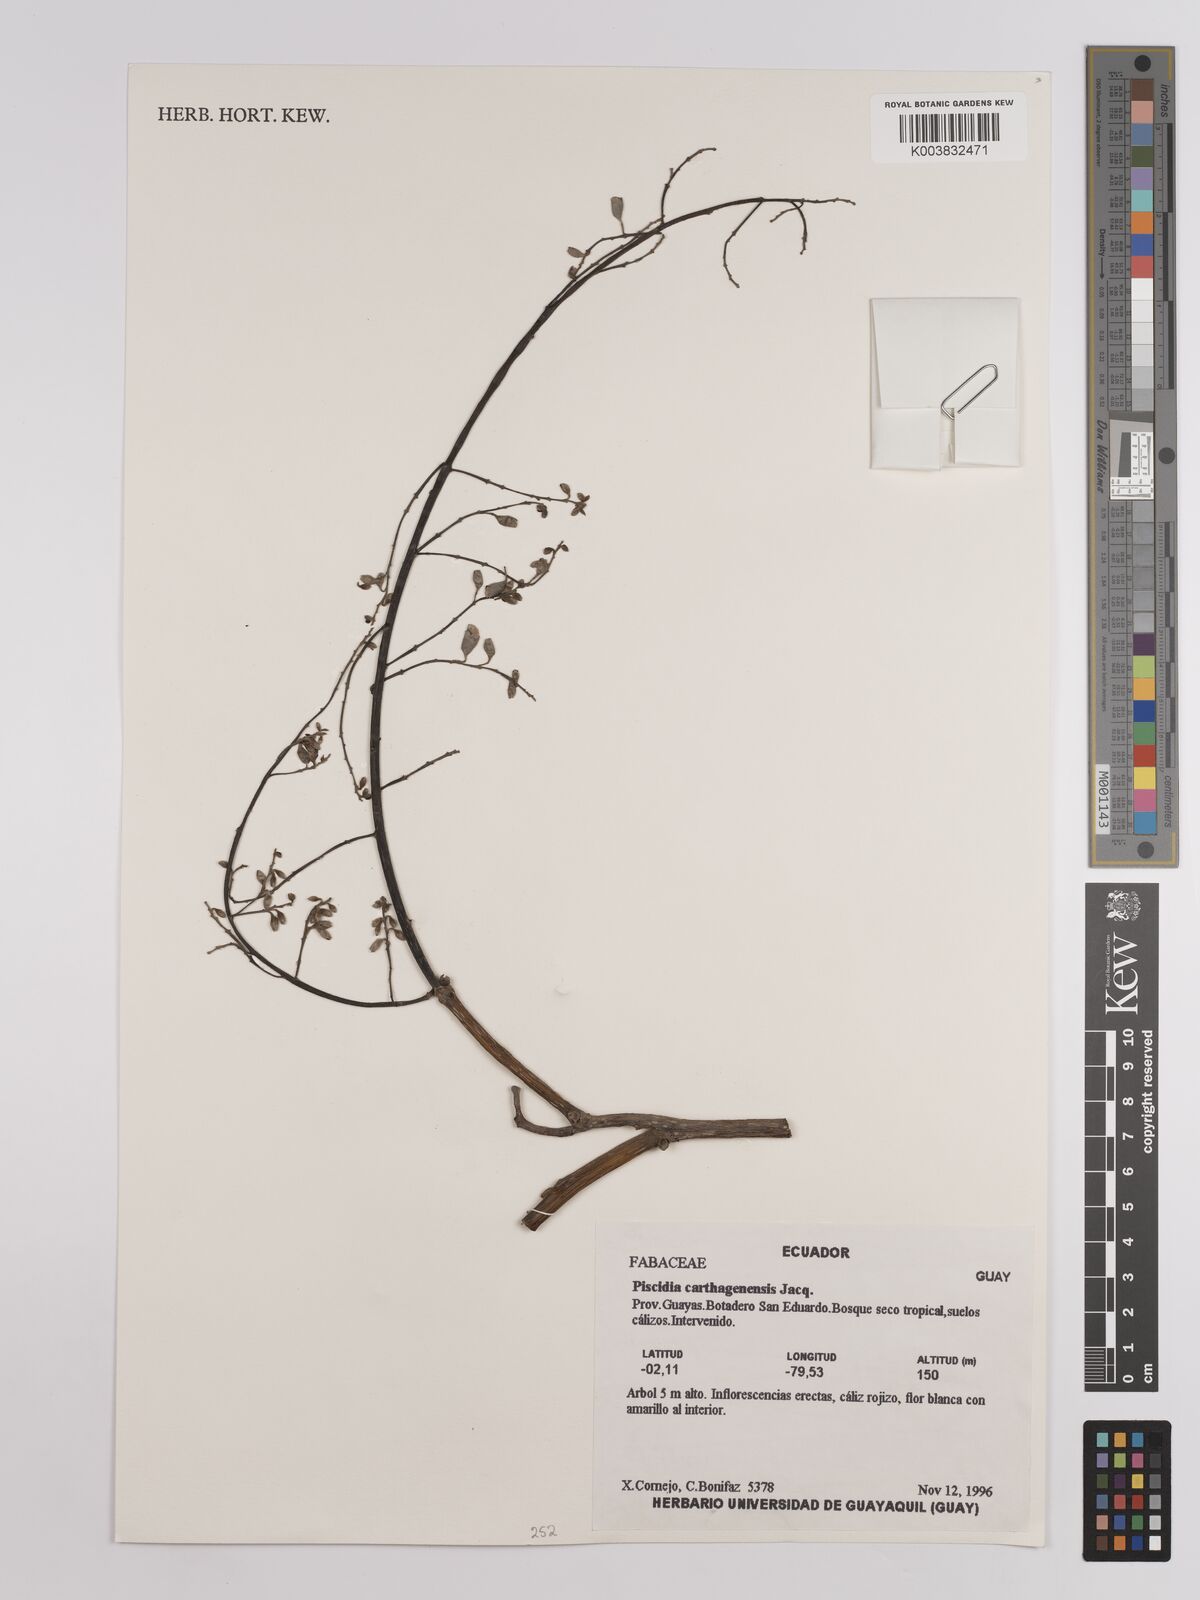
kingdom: Plantae
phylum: Tracheophyta
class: Magnoliopsida
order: Fabales
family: Fabaceae
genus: Piscidia
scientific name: Piscidia carthagenensis
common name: Stinkwood
